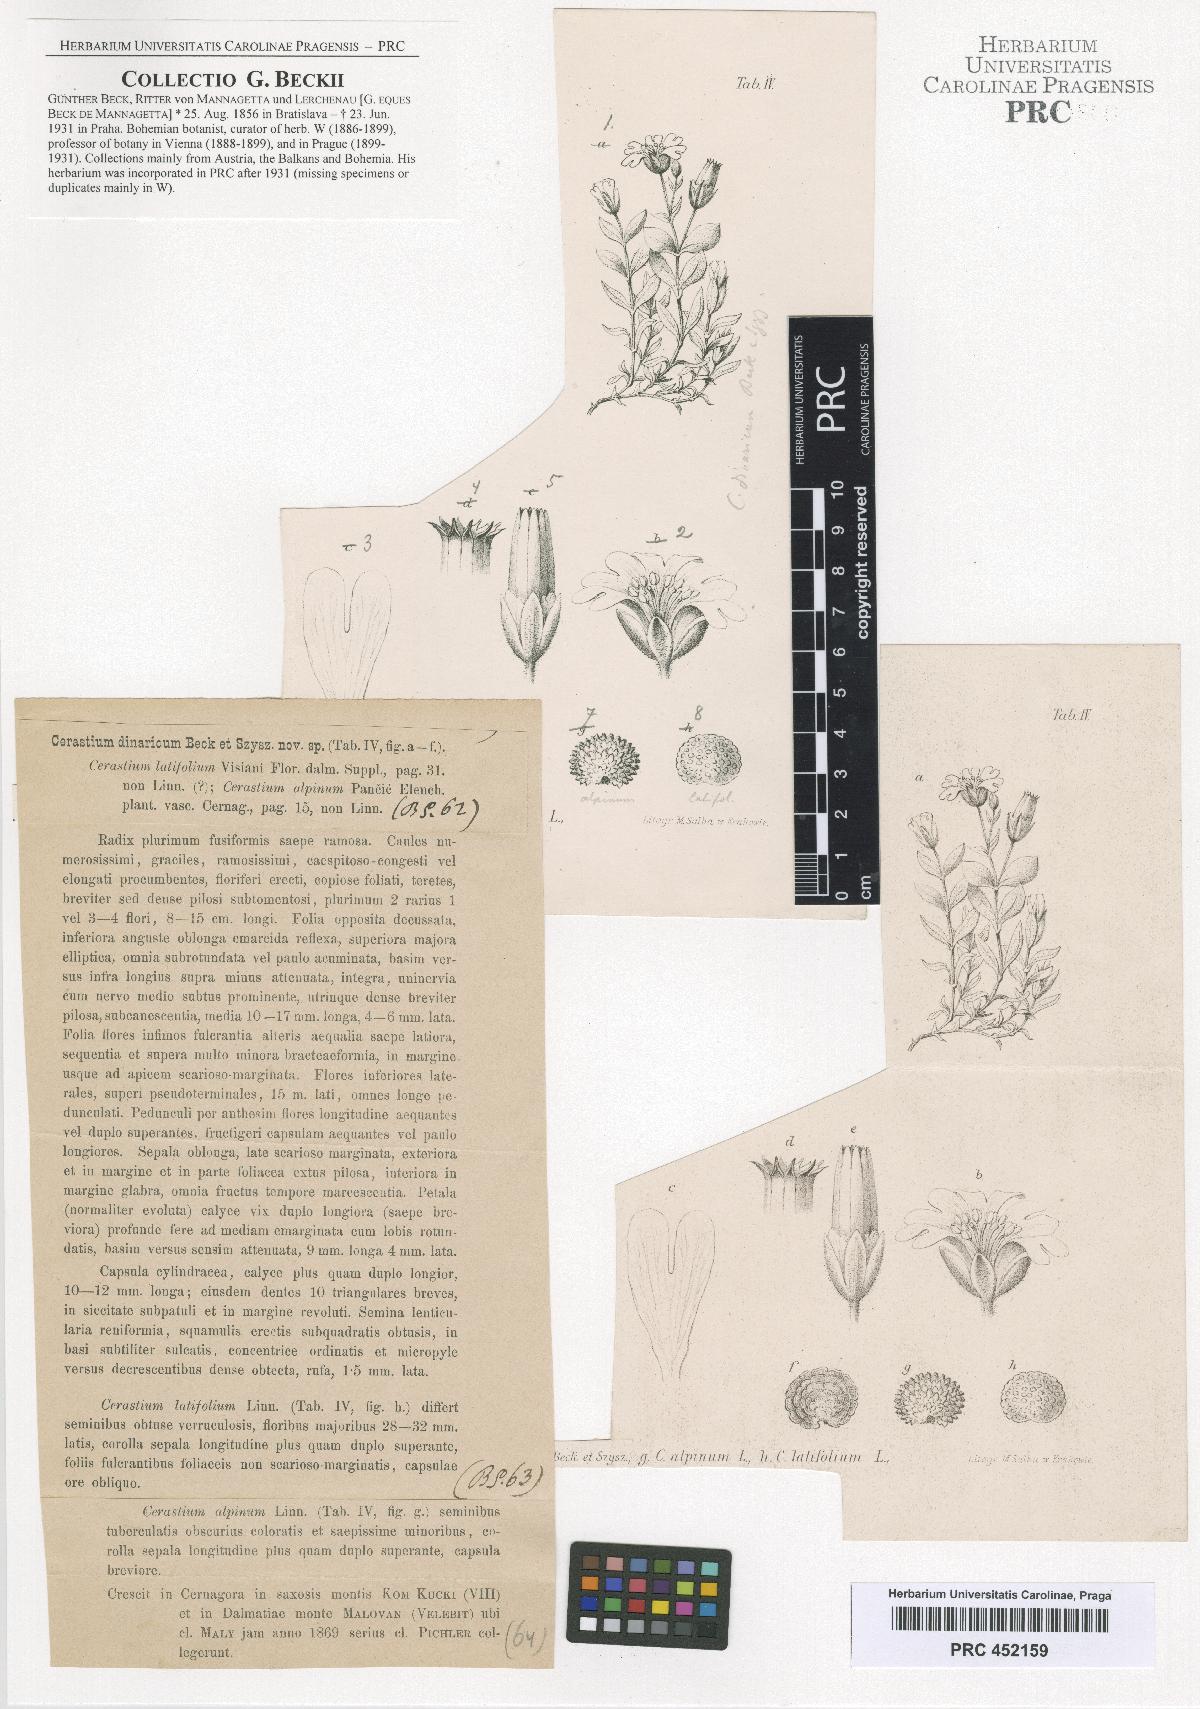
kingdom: Plantae
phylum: Tracheophyta
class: Magnoliopsida
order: Caryophyllales
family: Caryophyllaceae
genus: Cerastium
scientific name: Cerastium dinaricum
